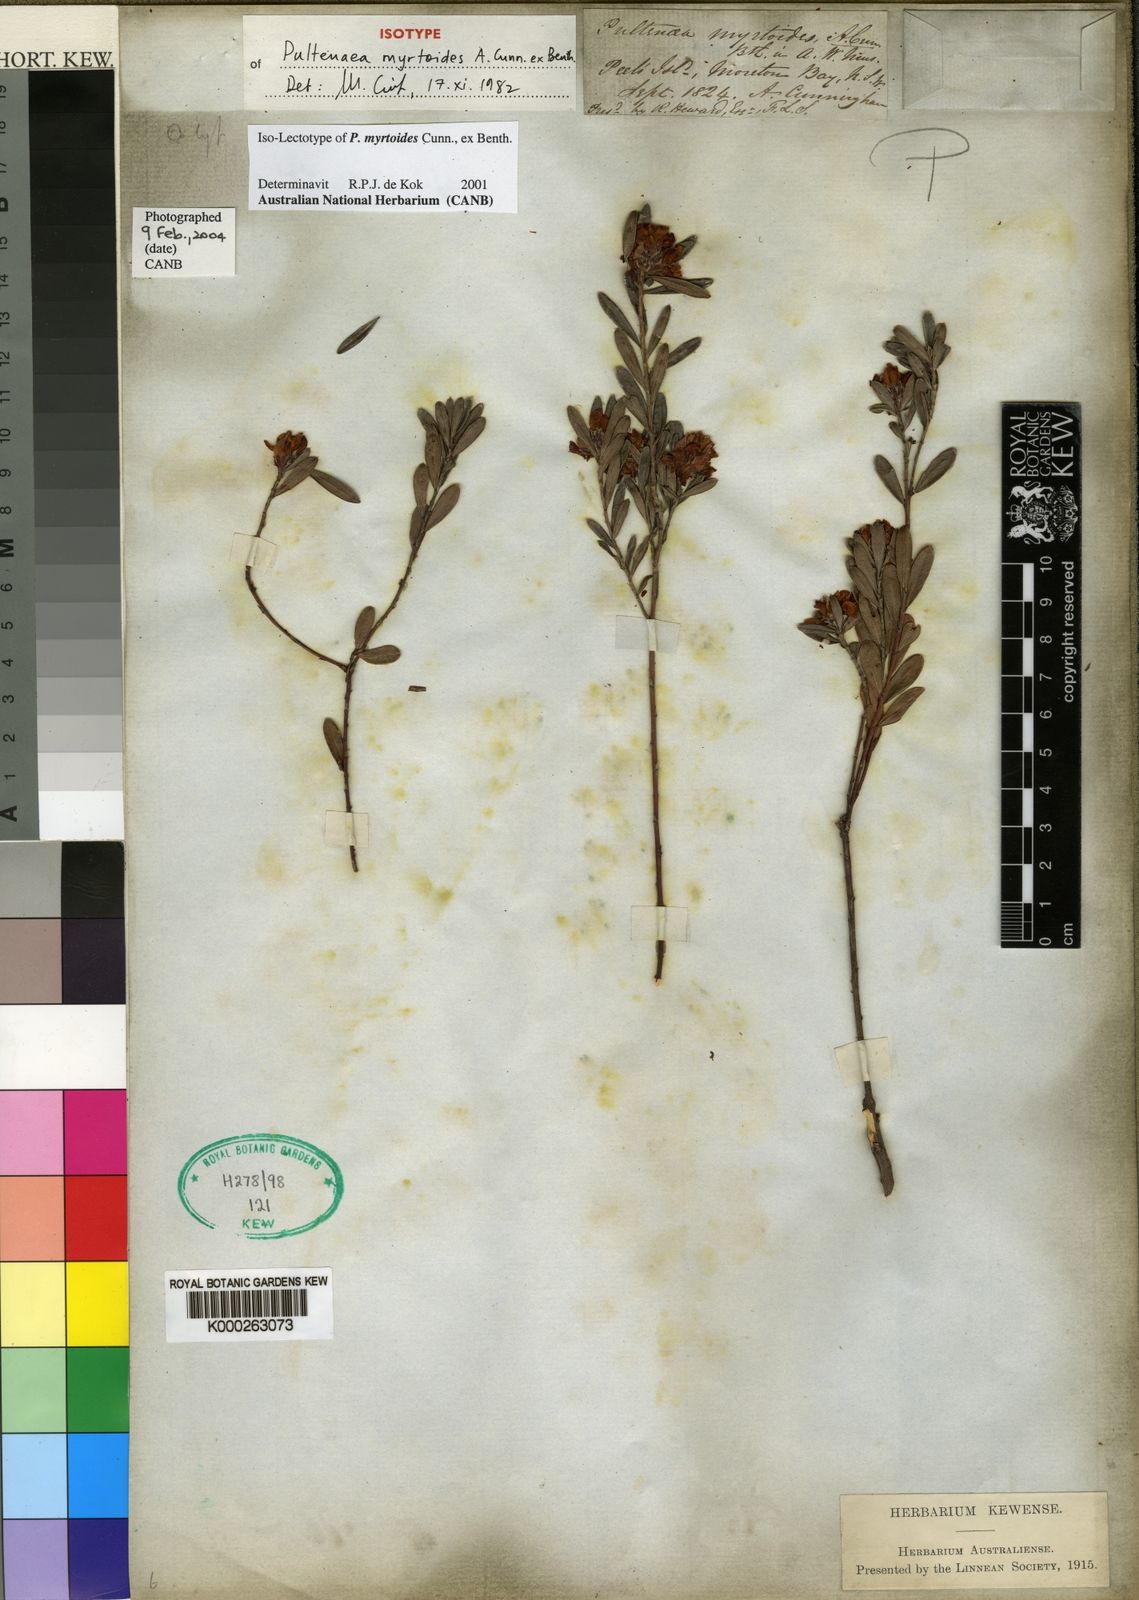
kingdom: Plantae
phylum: Tracheophyta
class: Magnoliopsida
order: Fabales
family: Fabaceae
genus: Pultenaea
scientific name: Pultenaea myrtoides
